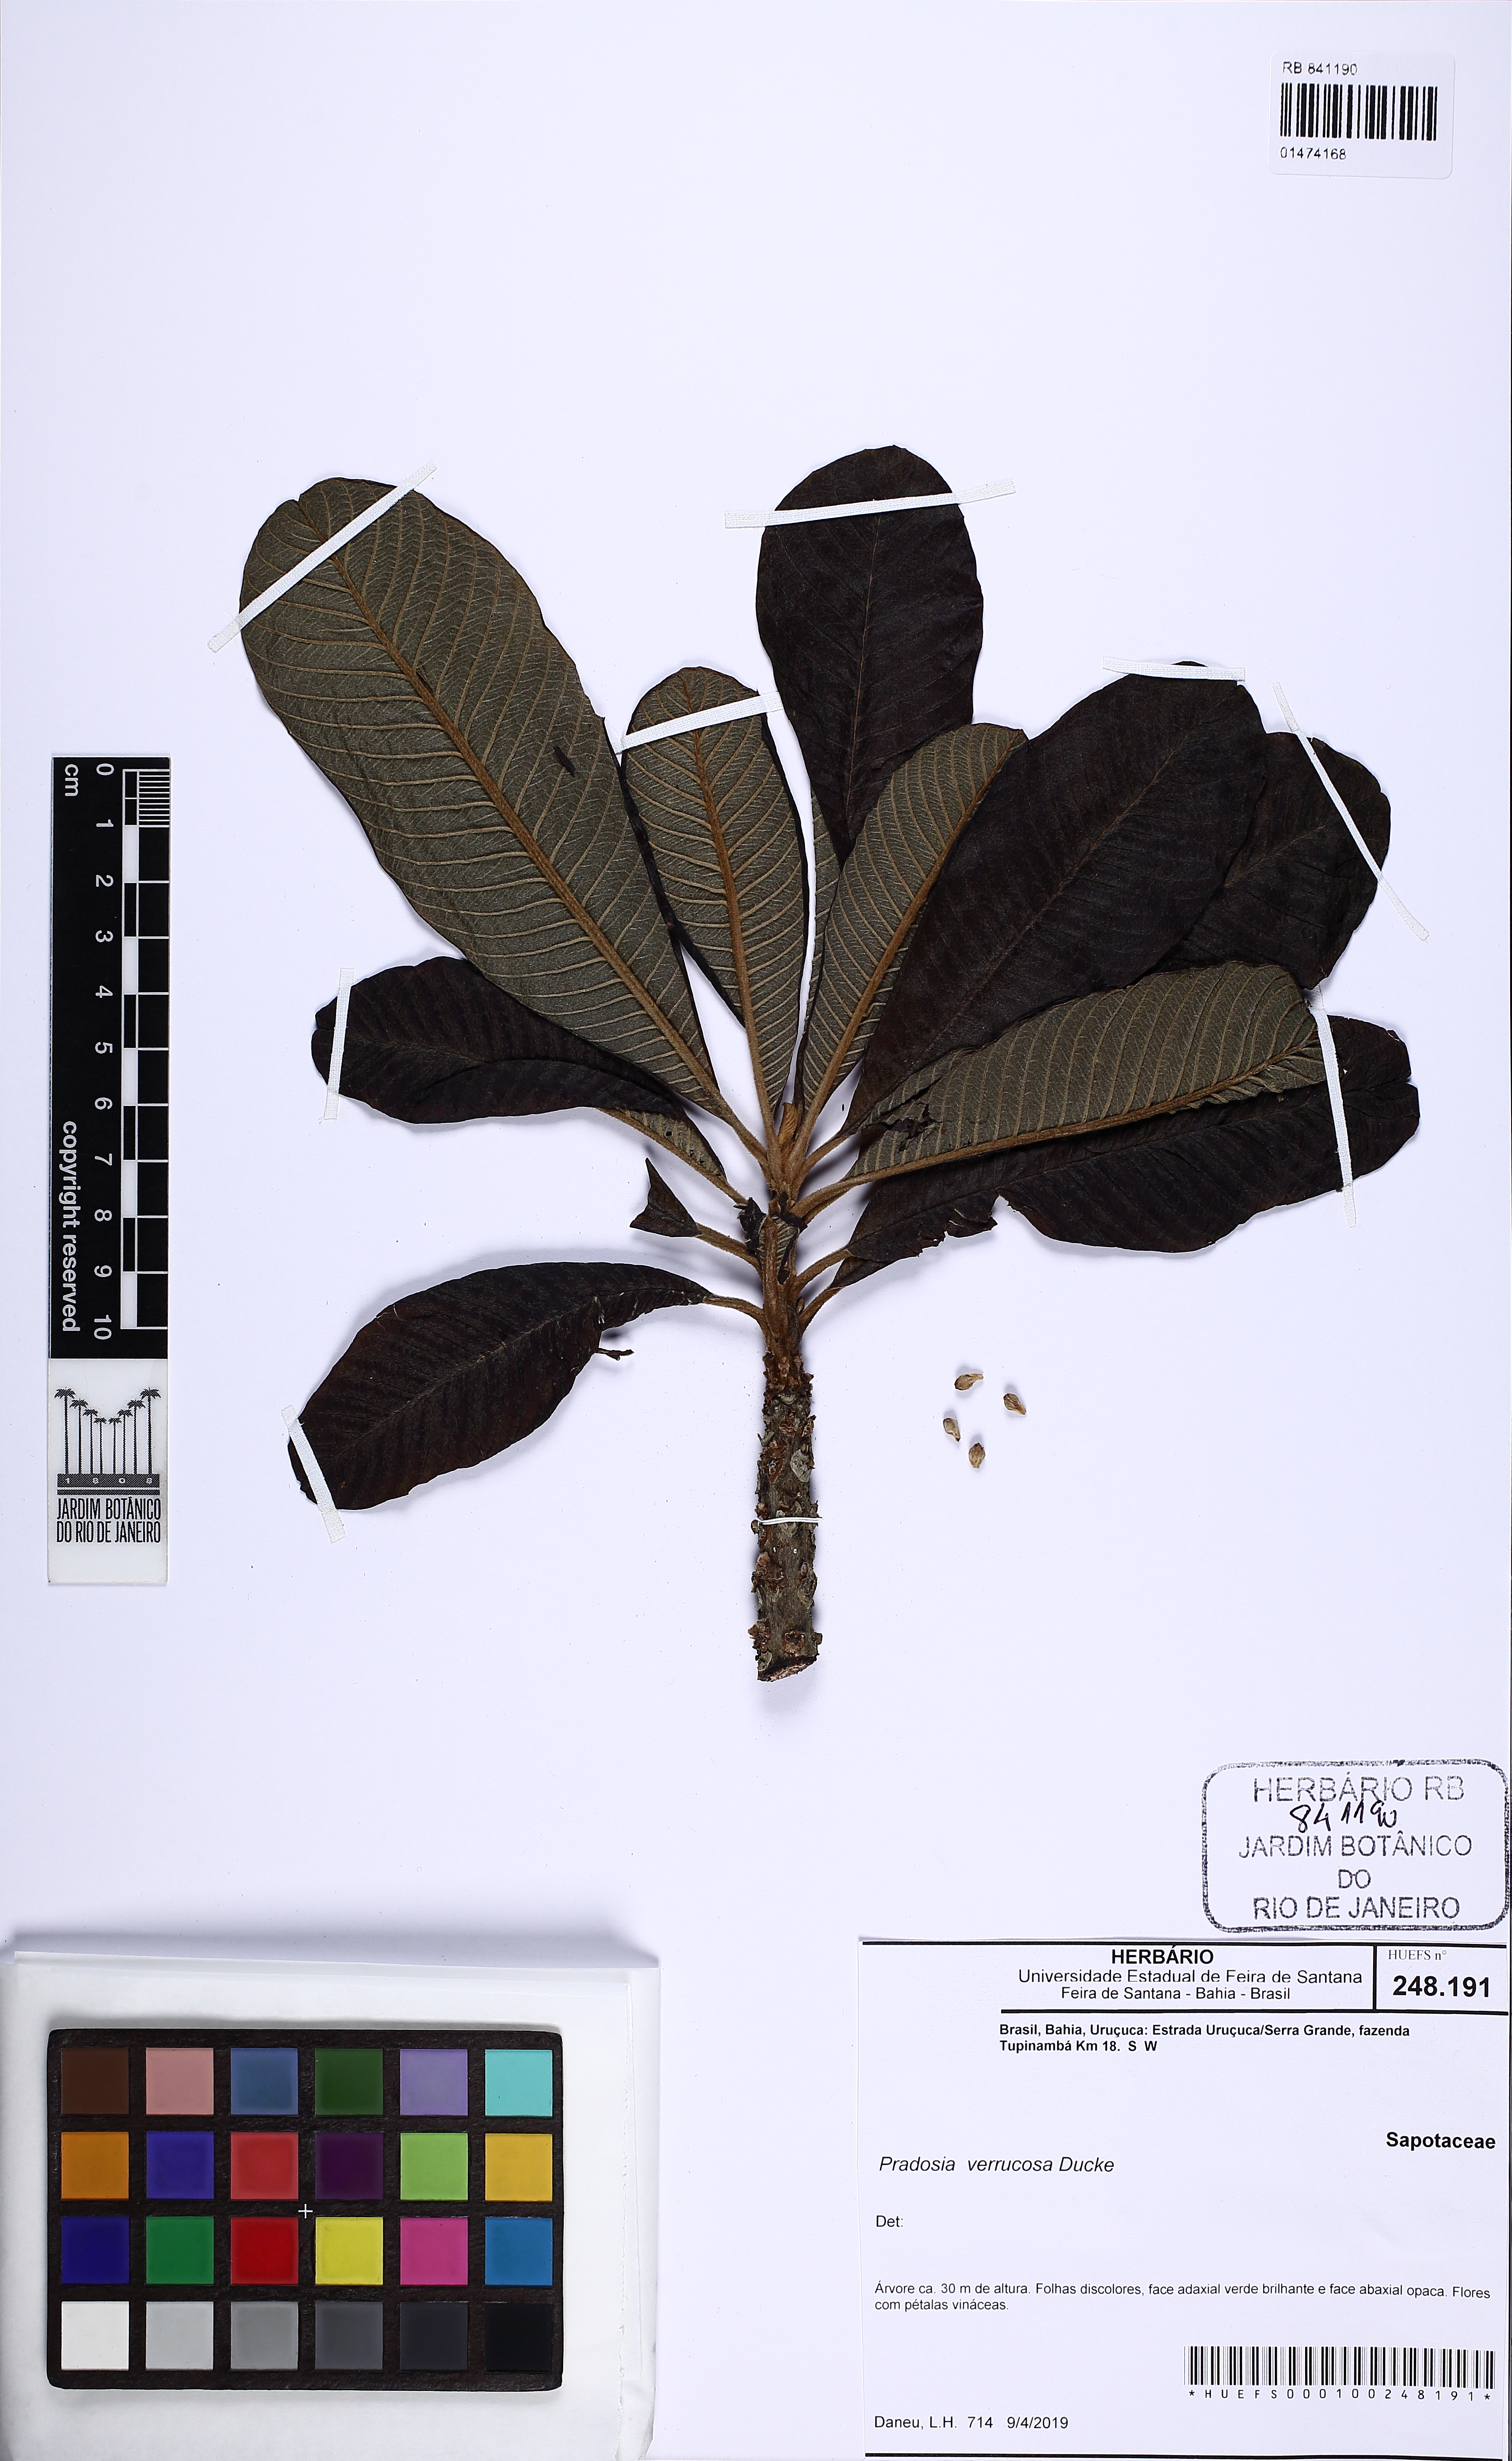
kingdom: Plantae
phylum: Tracheophyta
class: Magnoliopsida
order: Ericales
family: Sapotaceae
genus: Pradosia
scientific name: Pradosia glaziovii
